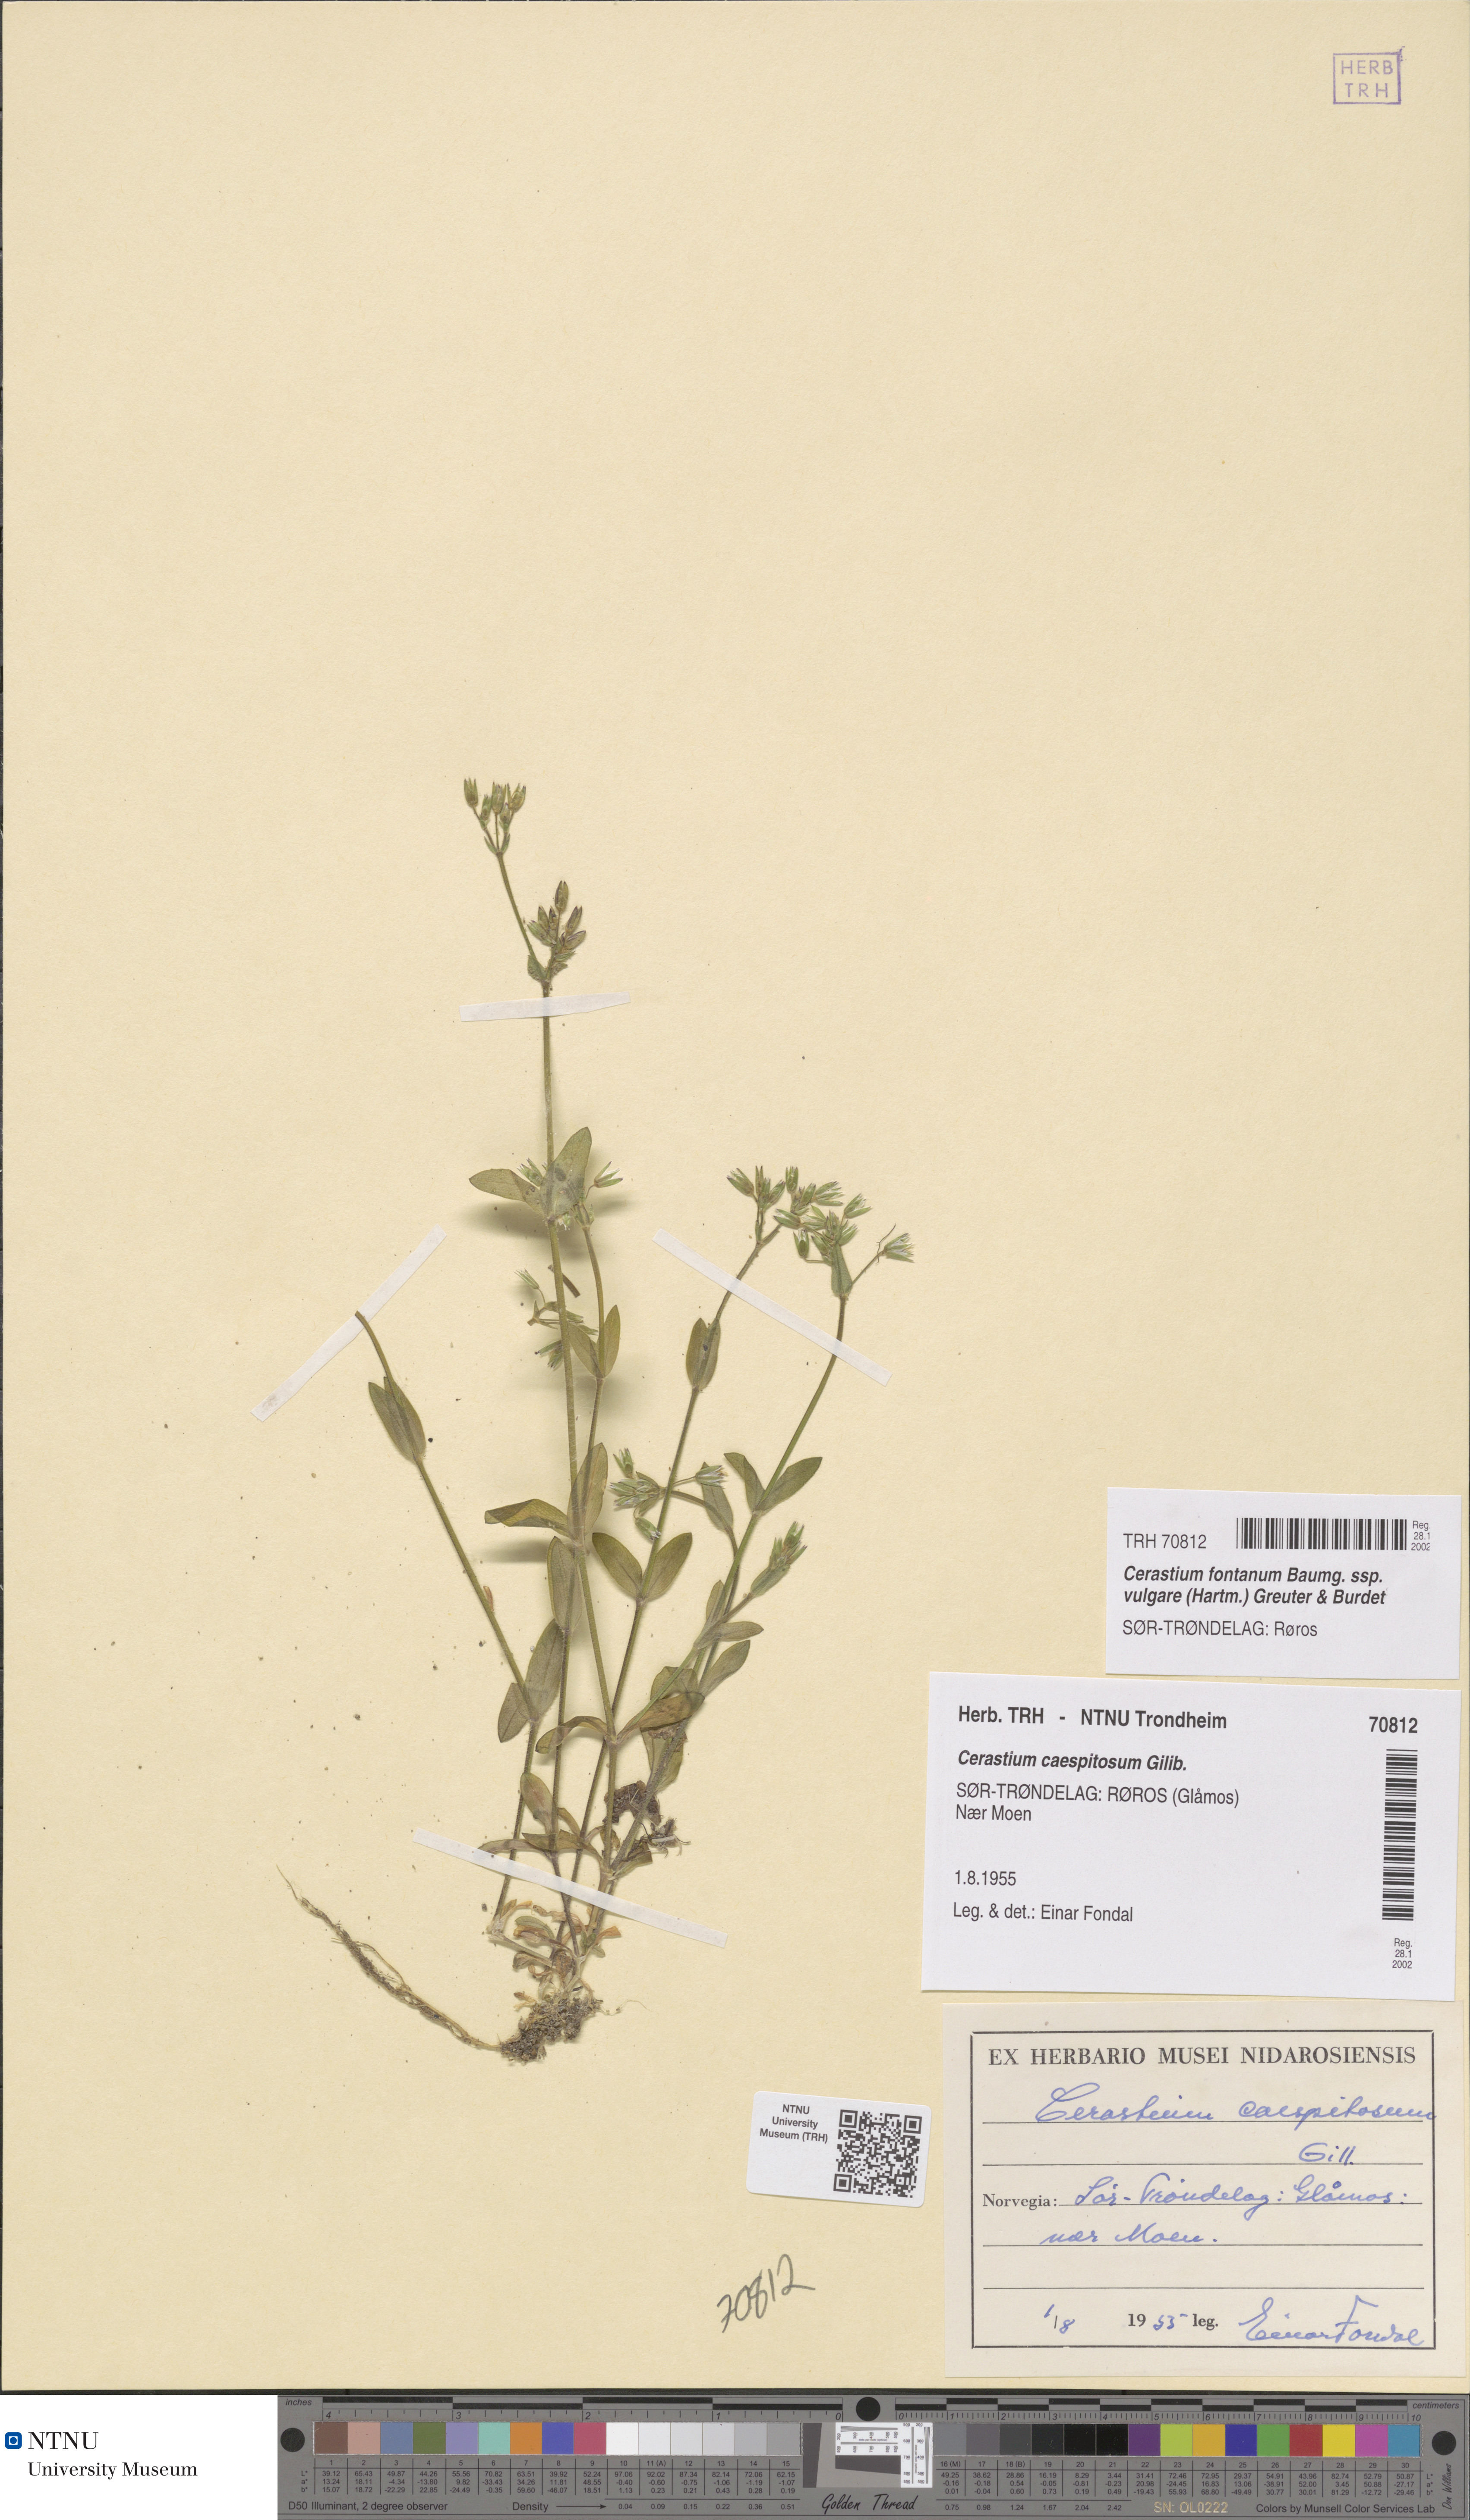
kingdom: Plantae
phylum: Tracheophyta
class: Magnoliopsida
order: Caryophyllales
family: Caryophyllaceae
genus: Cerastium
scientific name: Cerastium holosteoides
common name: Big chickweed
